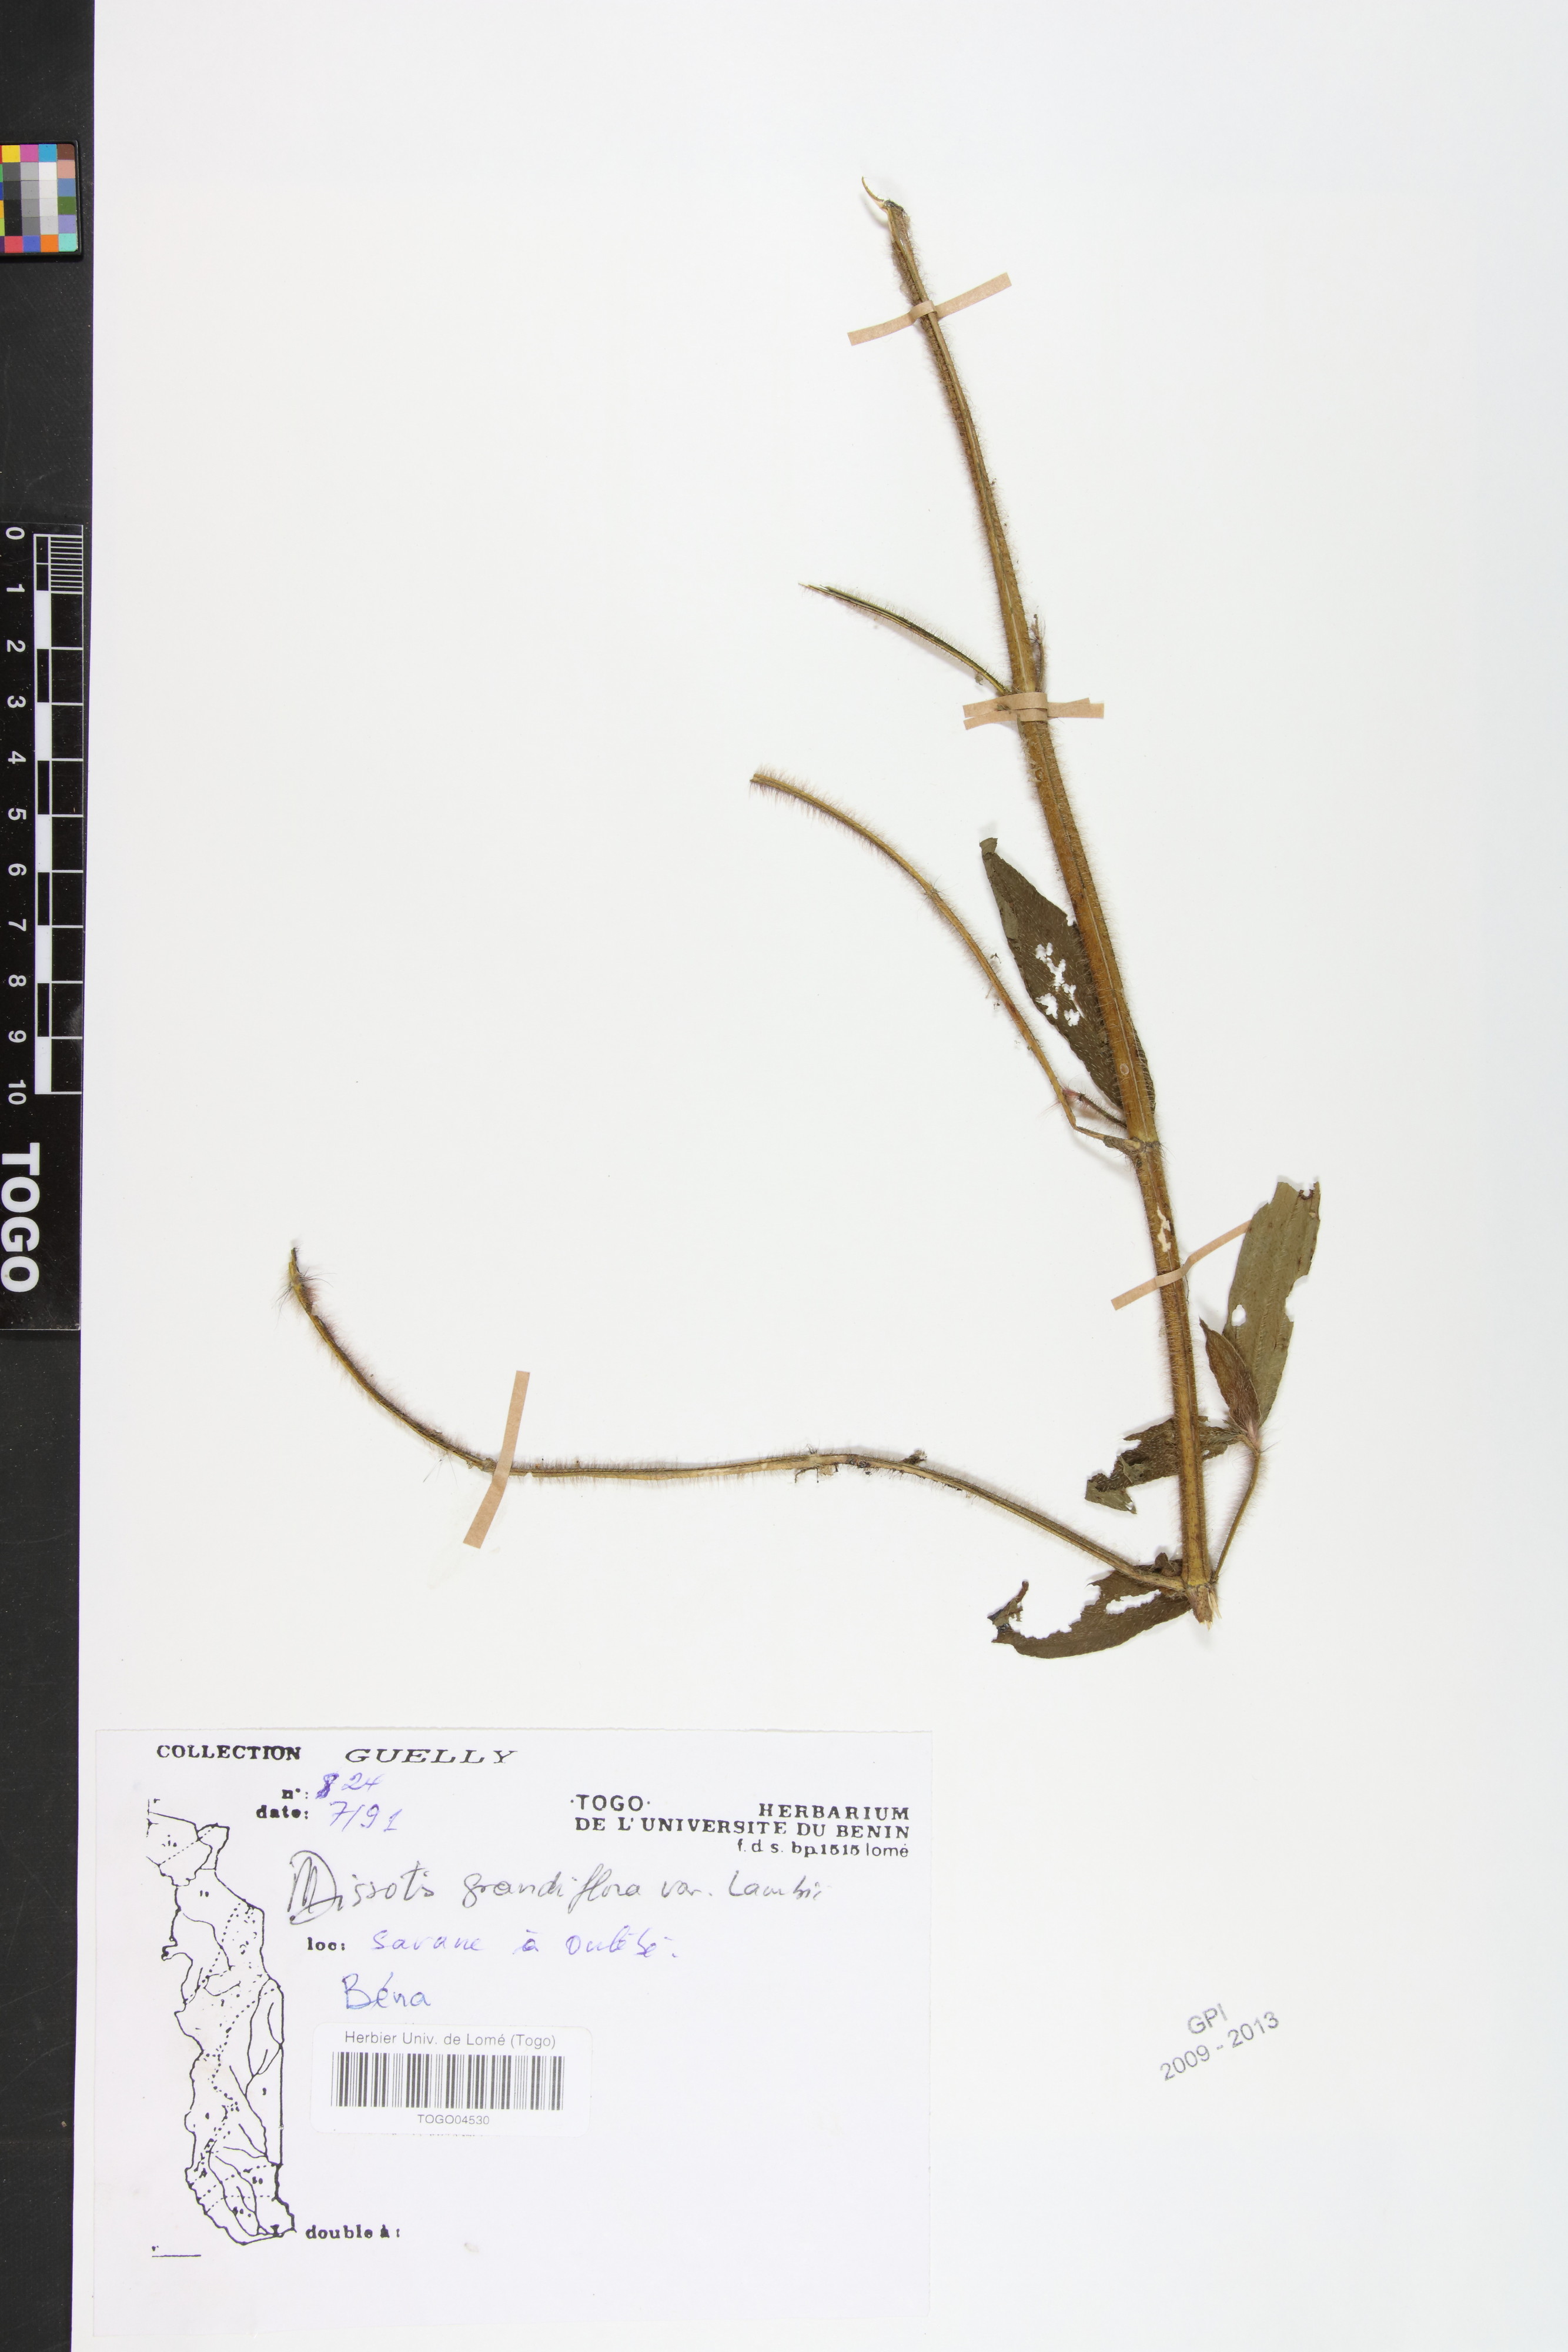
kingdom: Plantae
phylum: Tracheophyta
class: Magnoliopsida
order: Myrtales
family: Melastomataceae
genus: Dissotis
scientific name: Dissotis grandiflora
